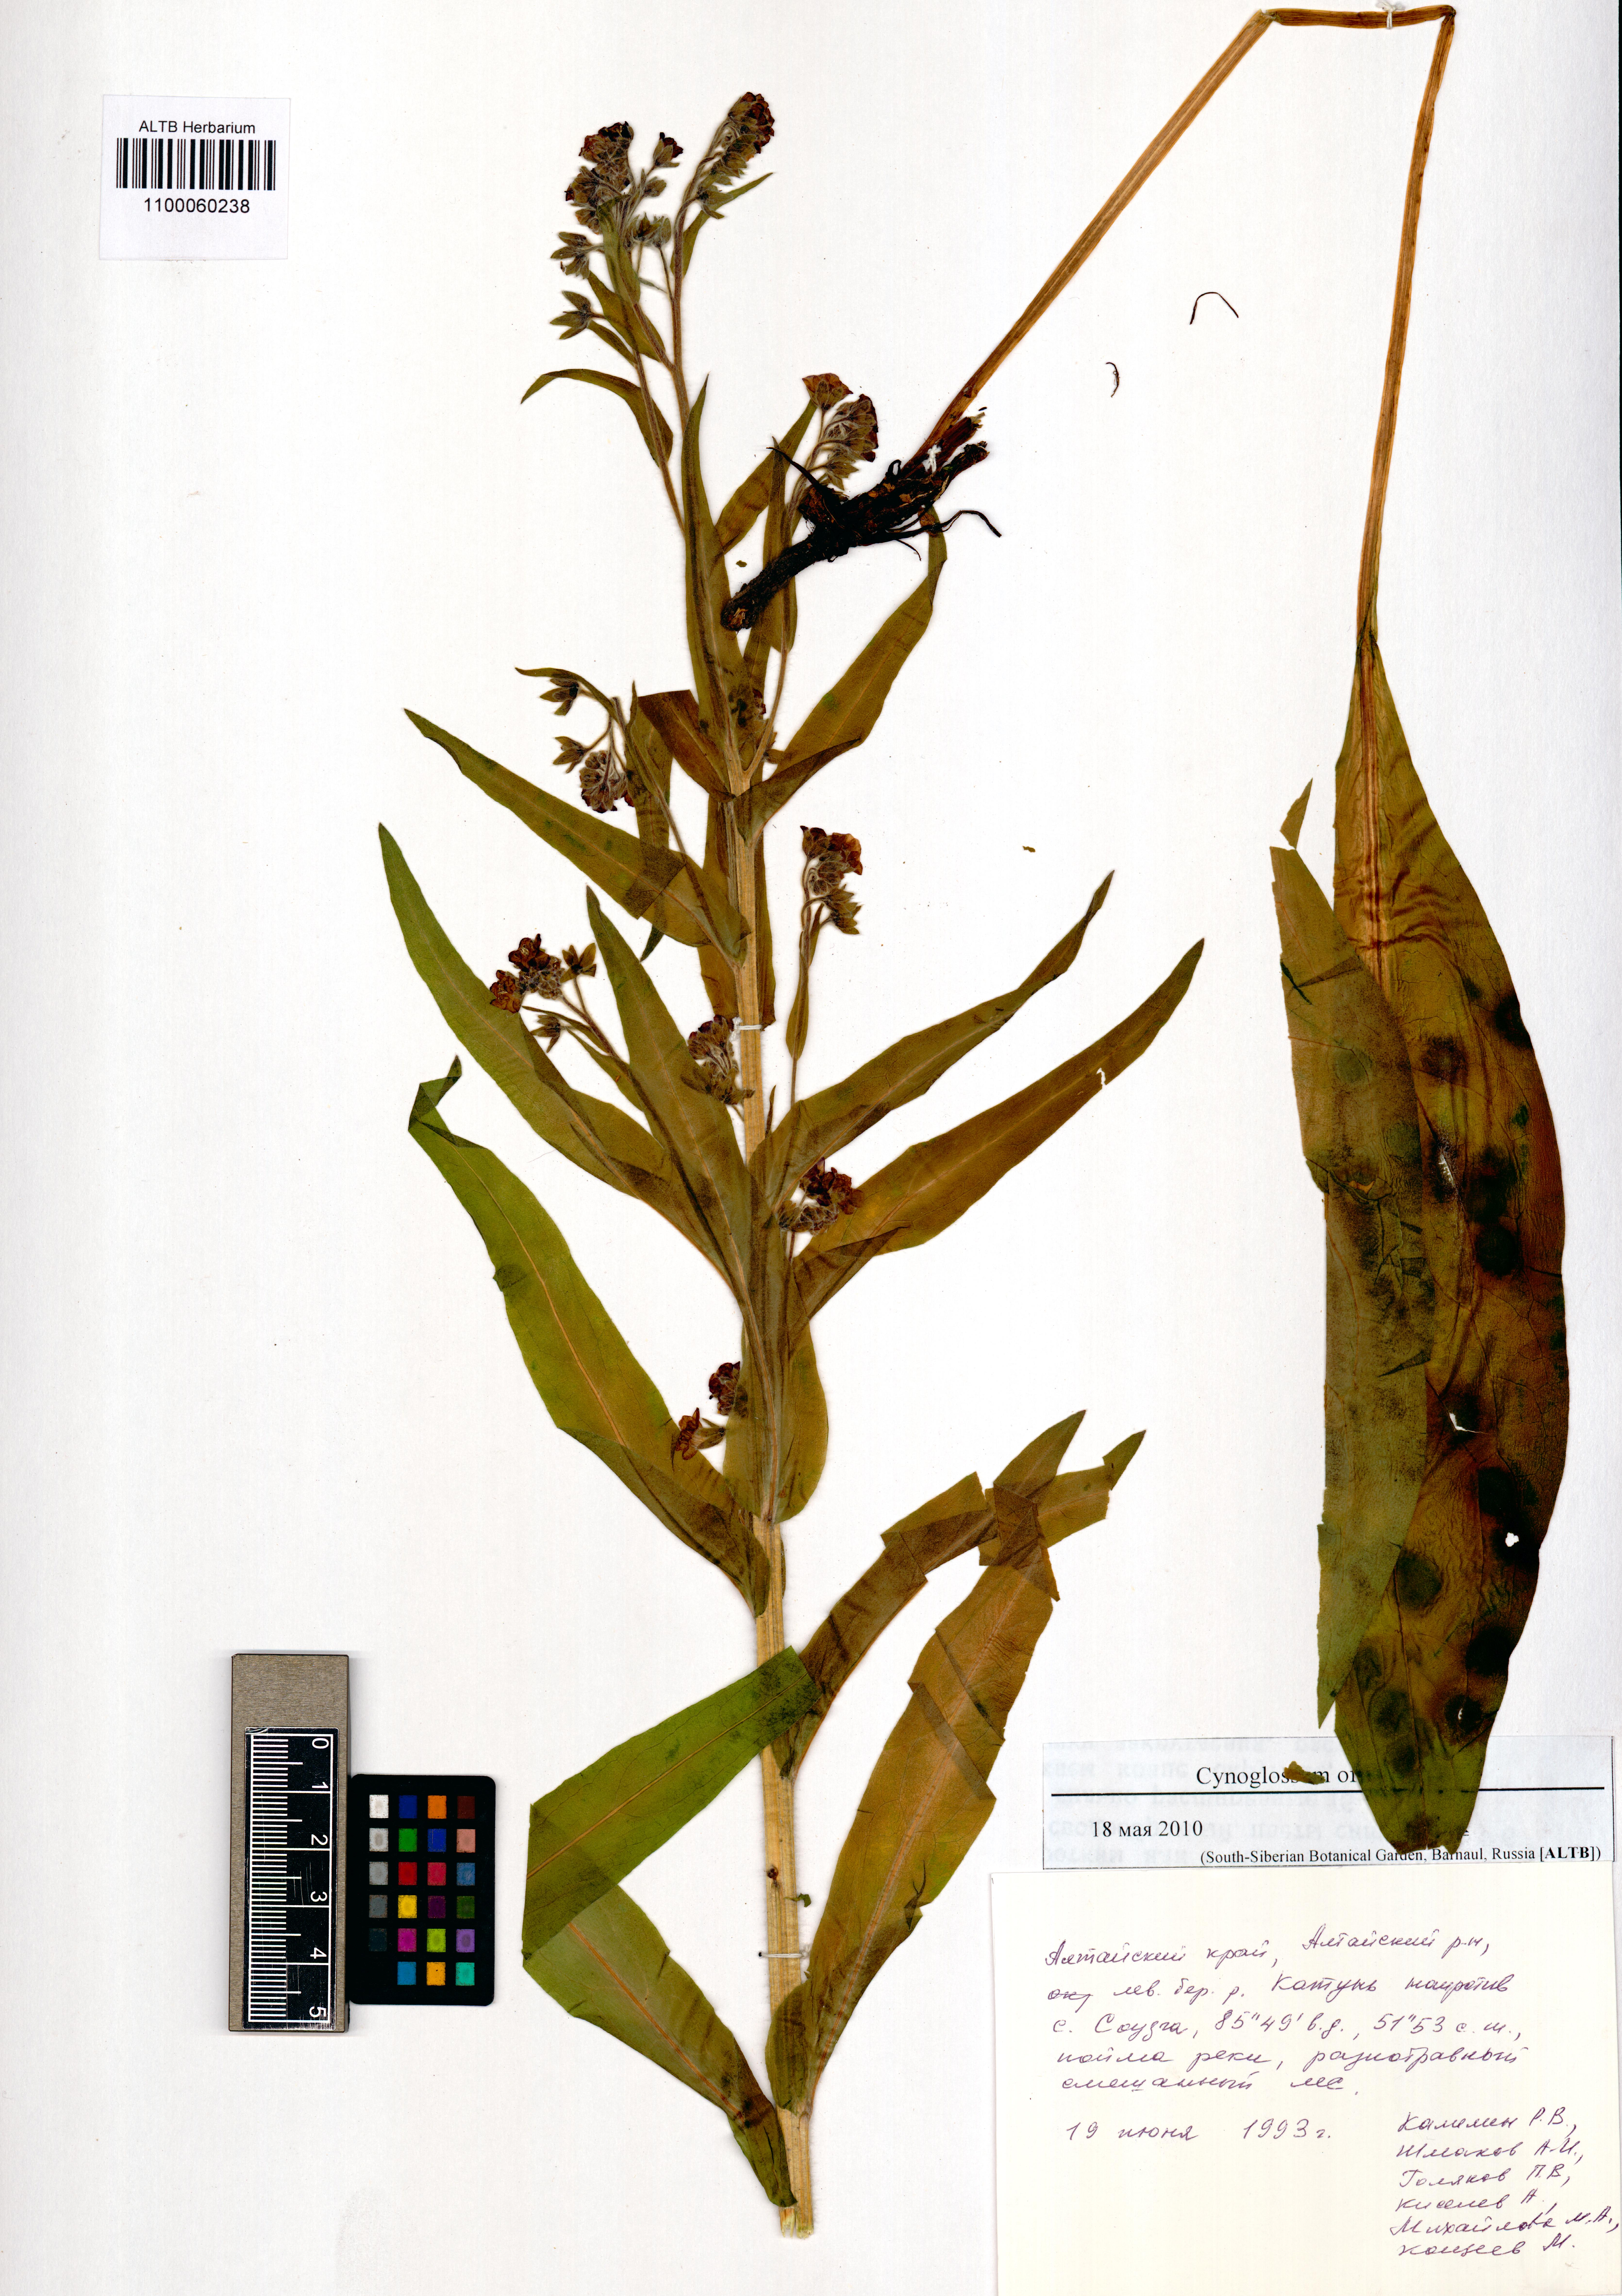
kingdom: Plantae
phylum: Tracheophyta
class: Magnoliopsida
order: Boraginales
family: Boraginaceae
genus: Cynoglossum
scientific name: Cynoglossum officinale
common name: Hound's-tongue
